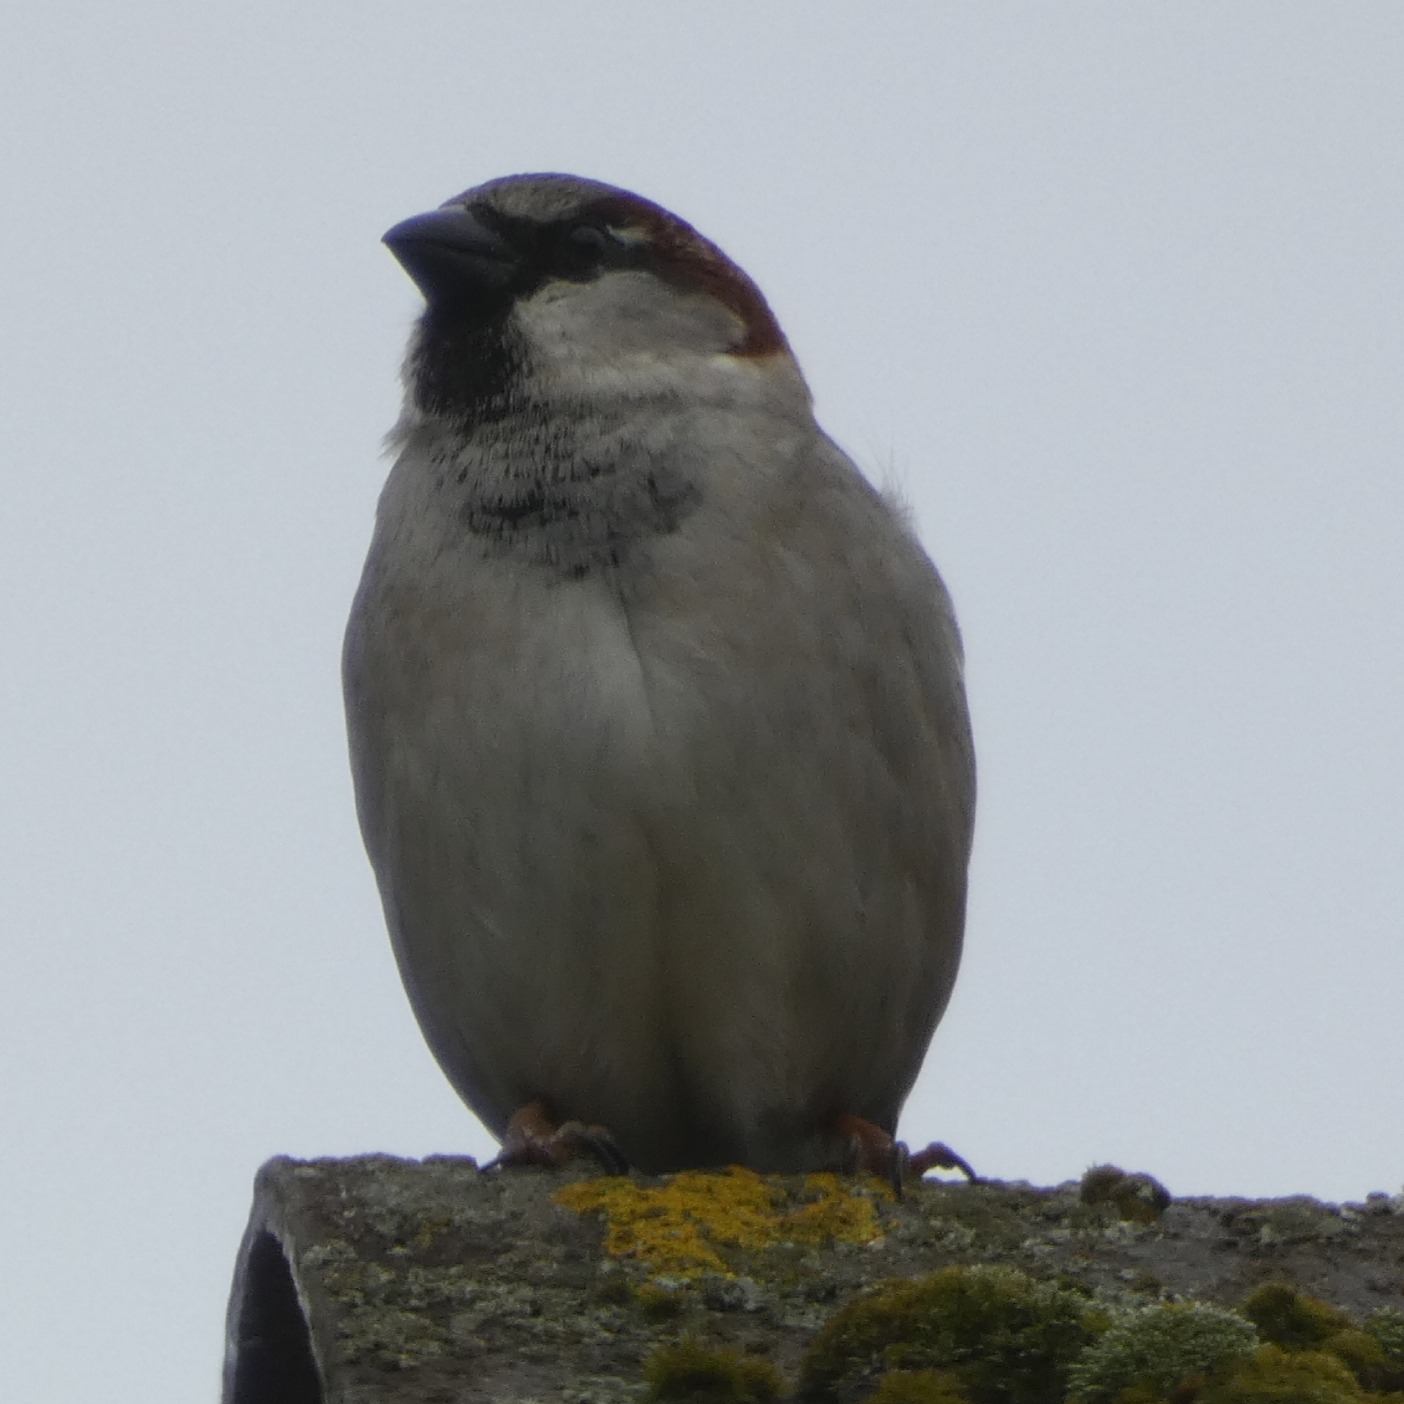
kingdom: Animalia
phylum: Chordata
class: Aves
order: Passeriformes
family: Passeridae
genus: Passer
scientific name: Passer domesticus
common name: Gråspurv
